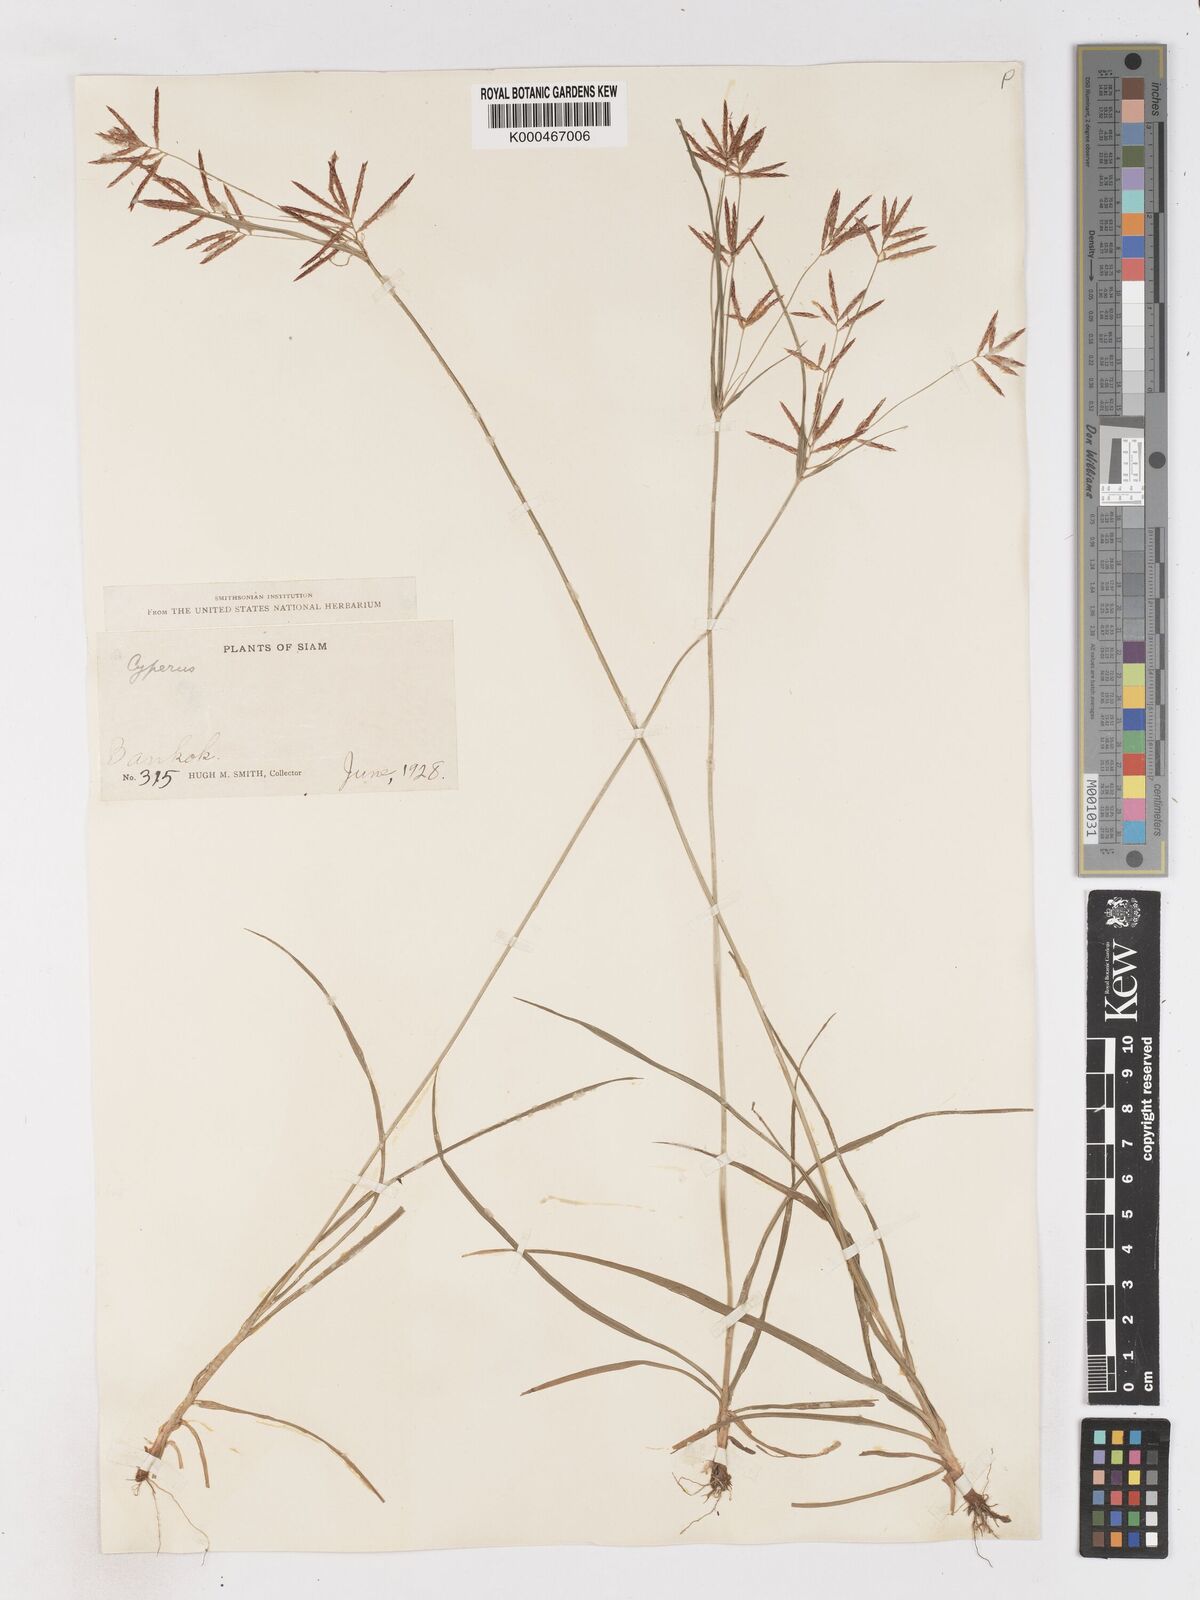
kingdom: Plantae
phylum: Tracheophyta
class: Liliopsida
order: Poales
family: Cyperaceae
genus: Cyperus
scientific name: Cyperus rotundus
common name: Nutgrass
